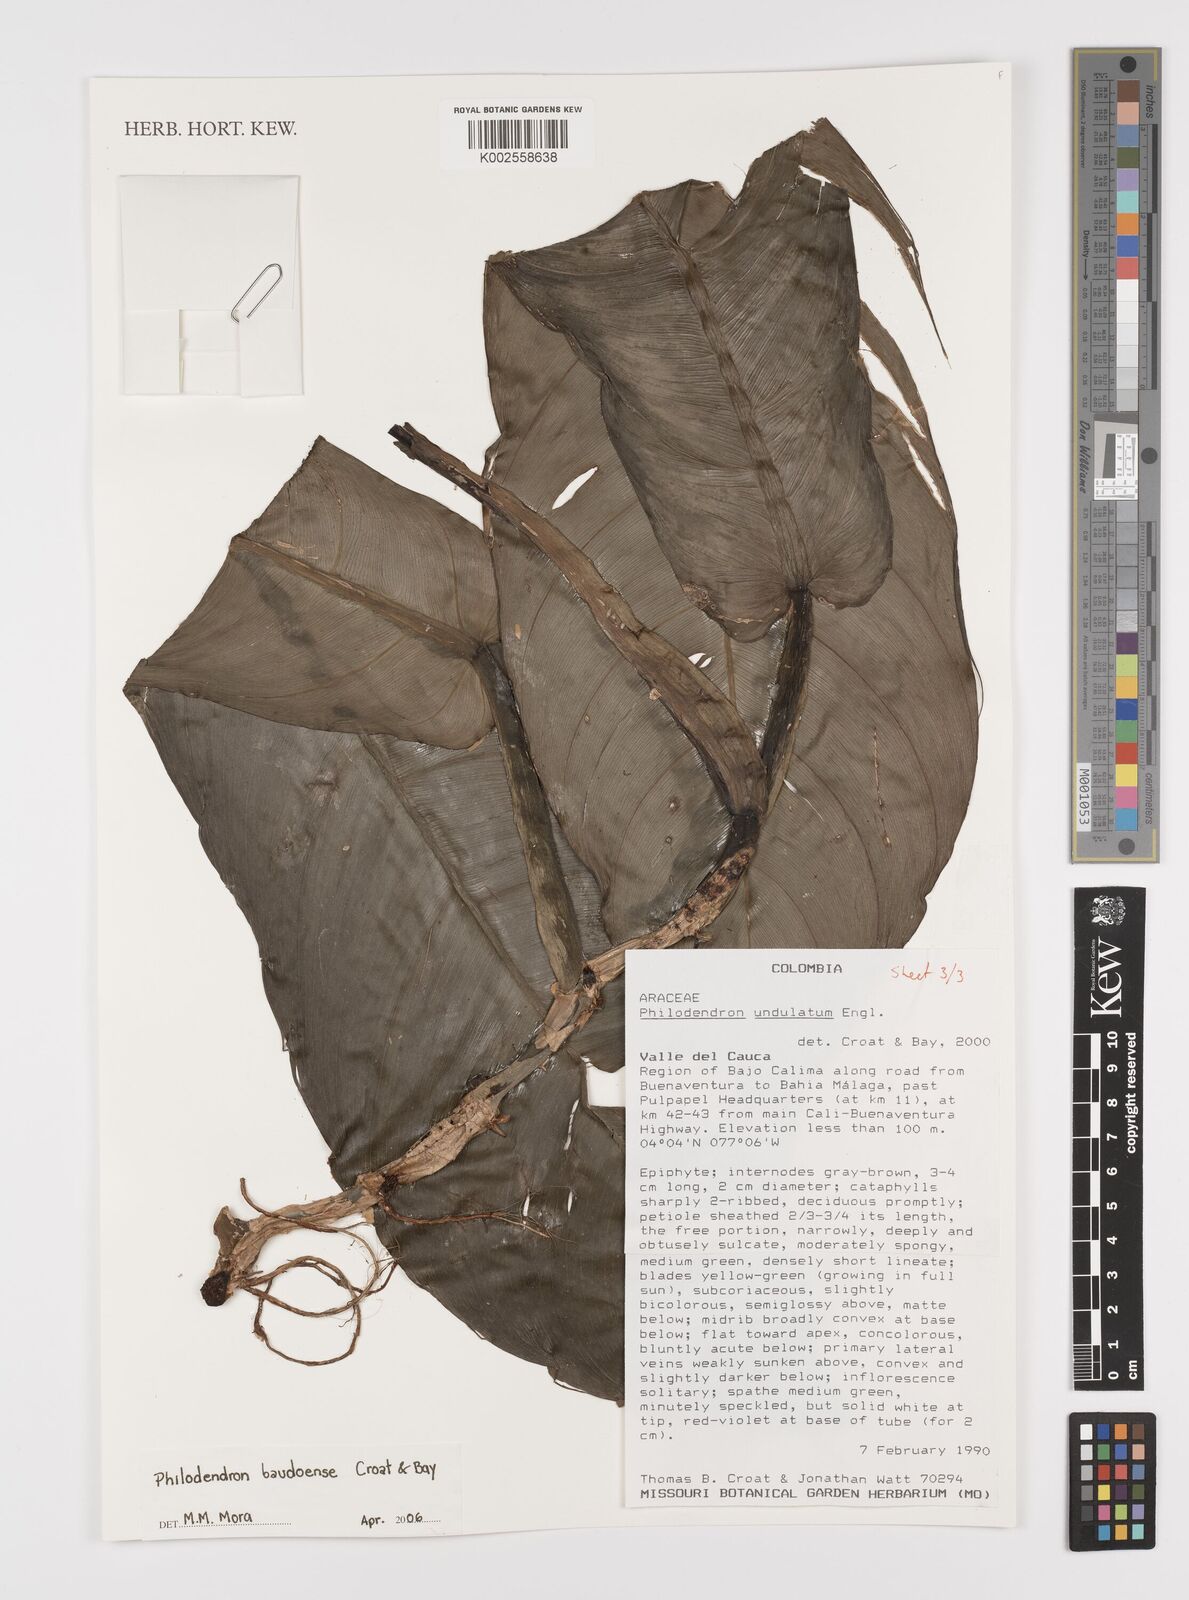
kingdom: Plantae
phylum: Tracheophyta
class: Liliopsida
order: Alismatales
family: Araceae
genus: Philodendron
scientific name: Philodendron baudoense
